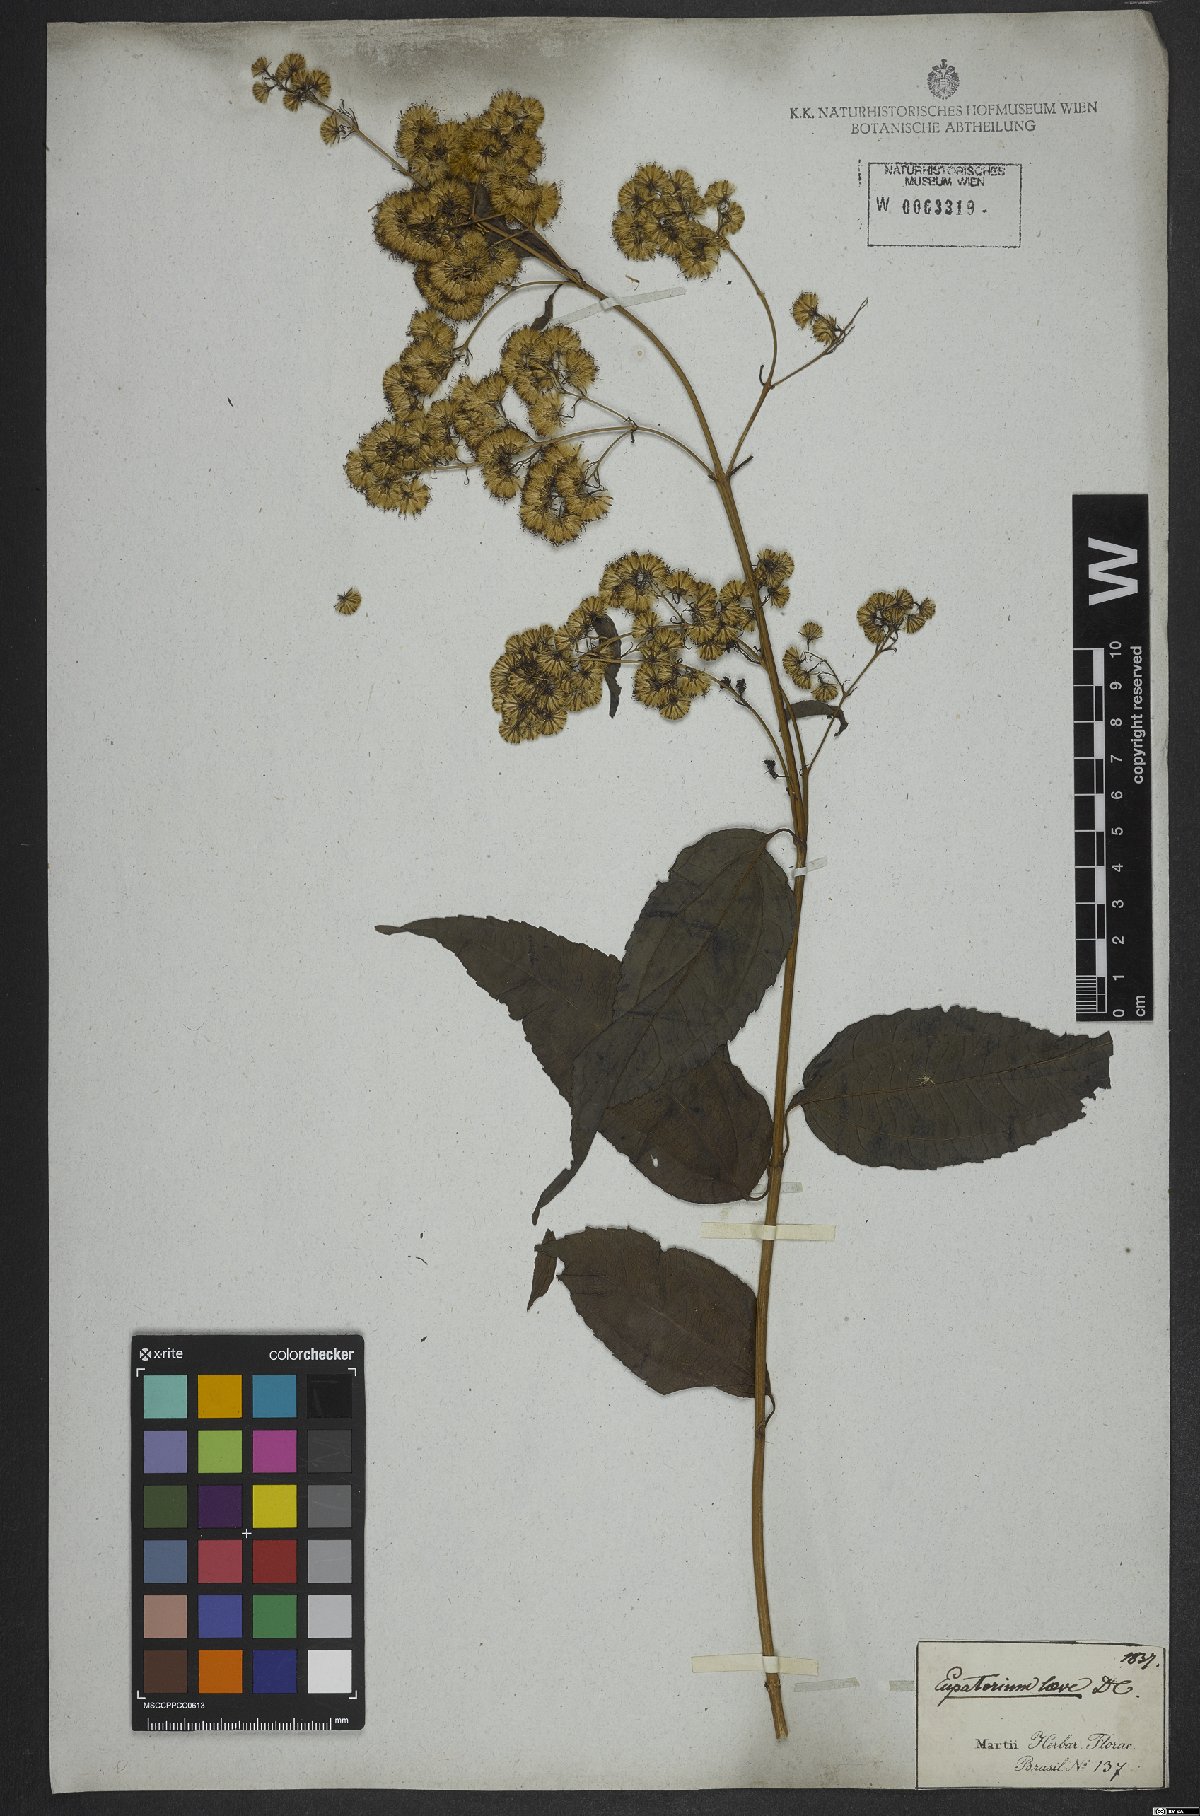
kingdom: Plantae
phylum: Tracheophyta
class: Magnoliopsida
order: Asterales
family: Asteraceae
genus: Koanophyllon
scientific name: Koanophyllon simillimum
